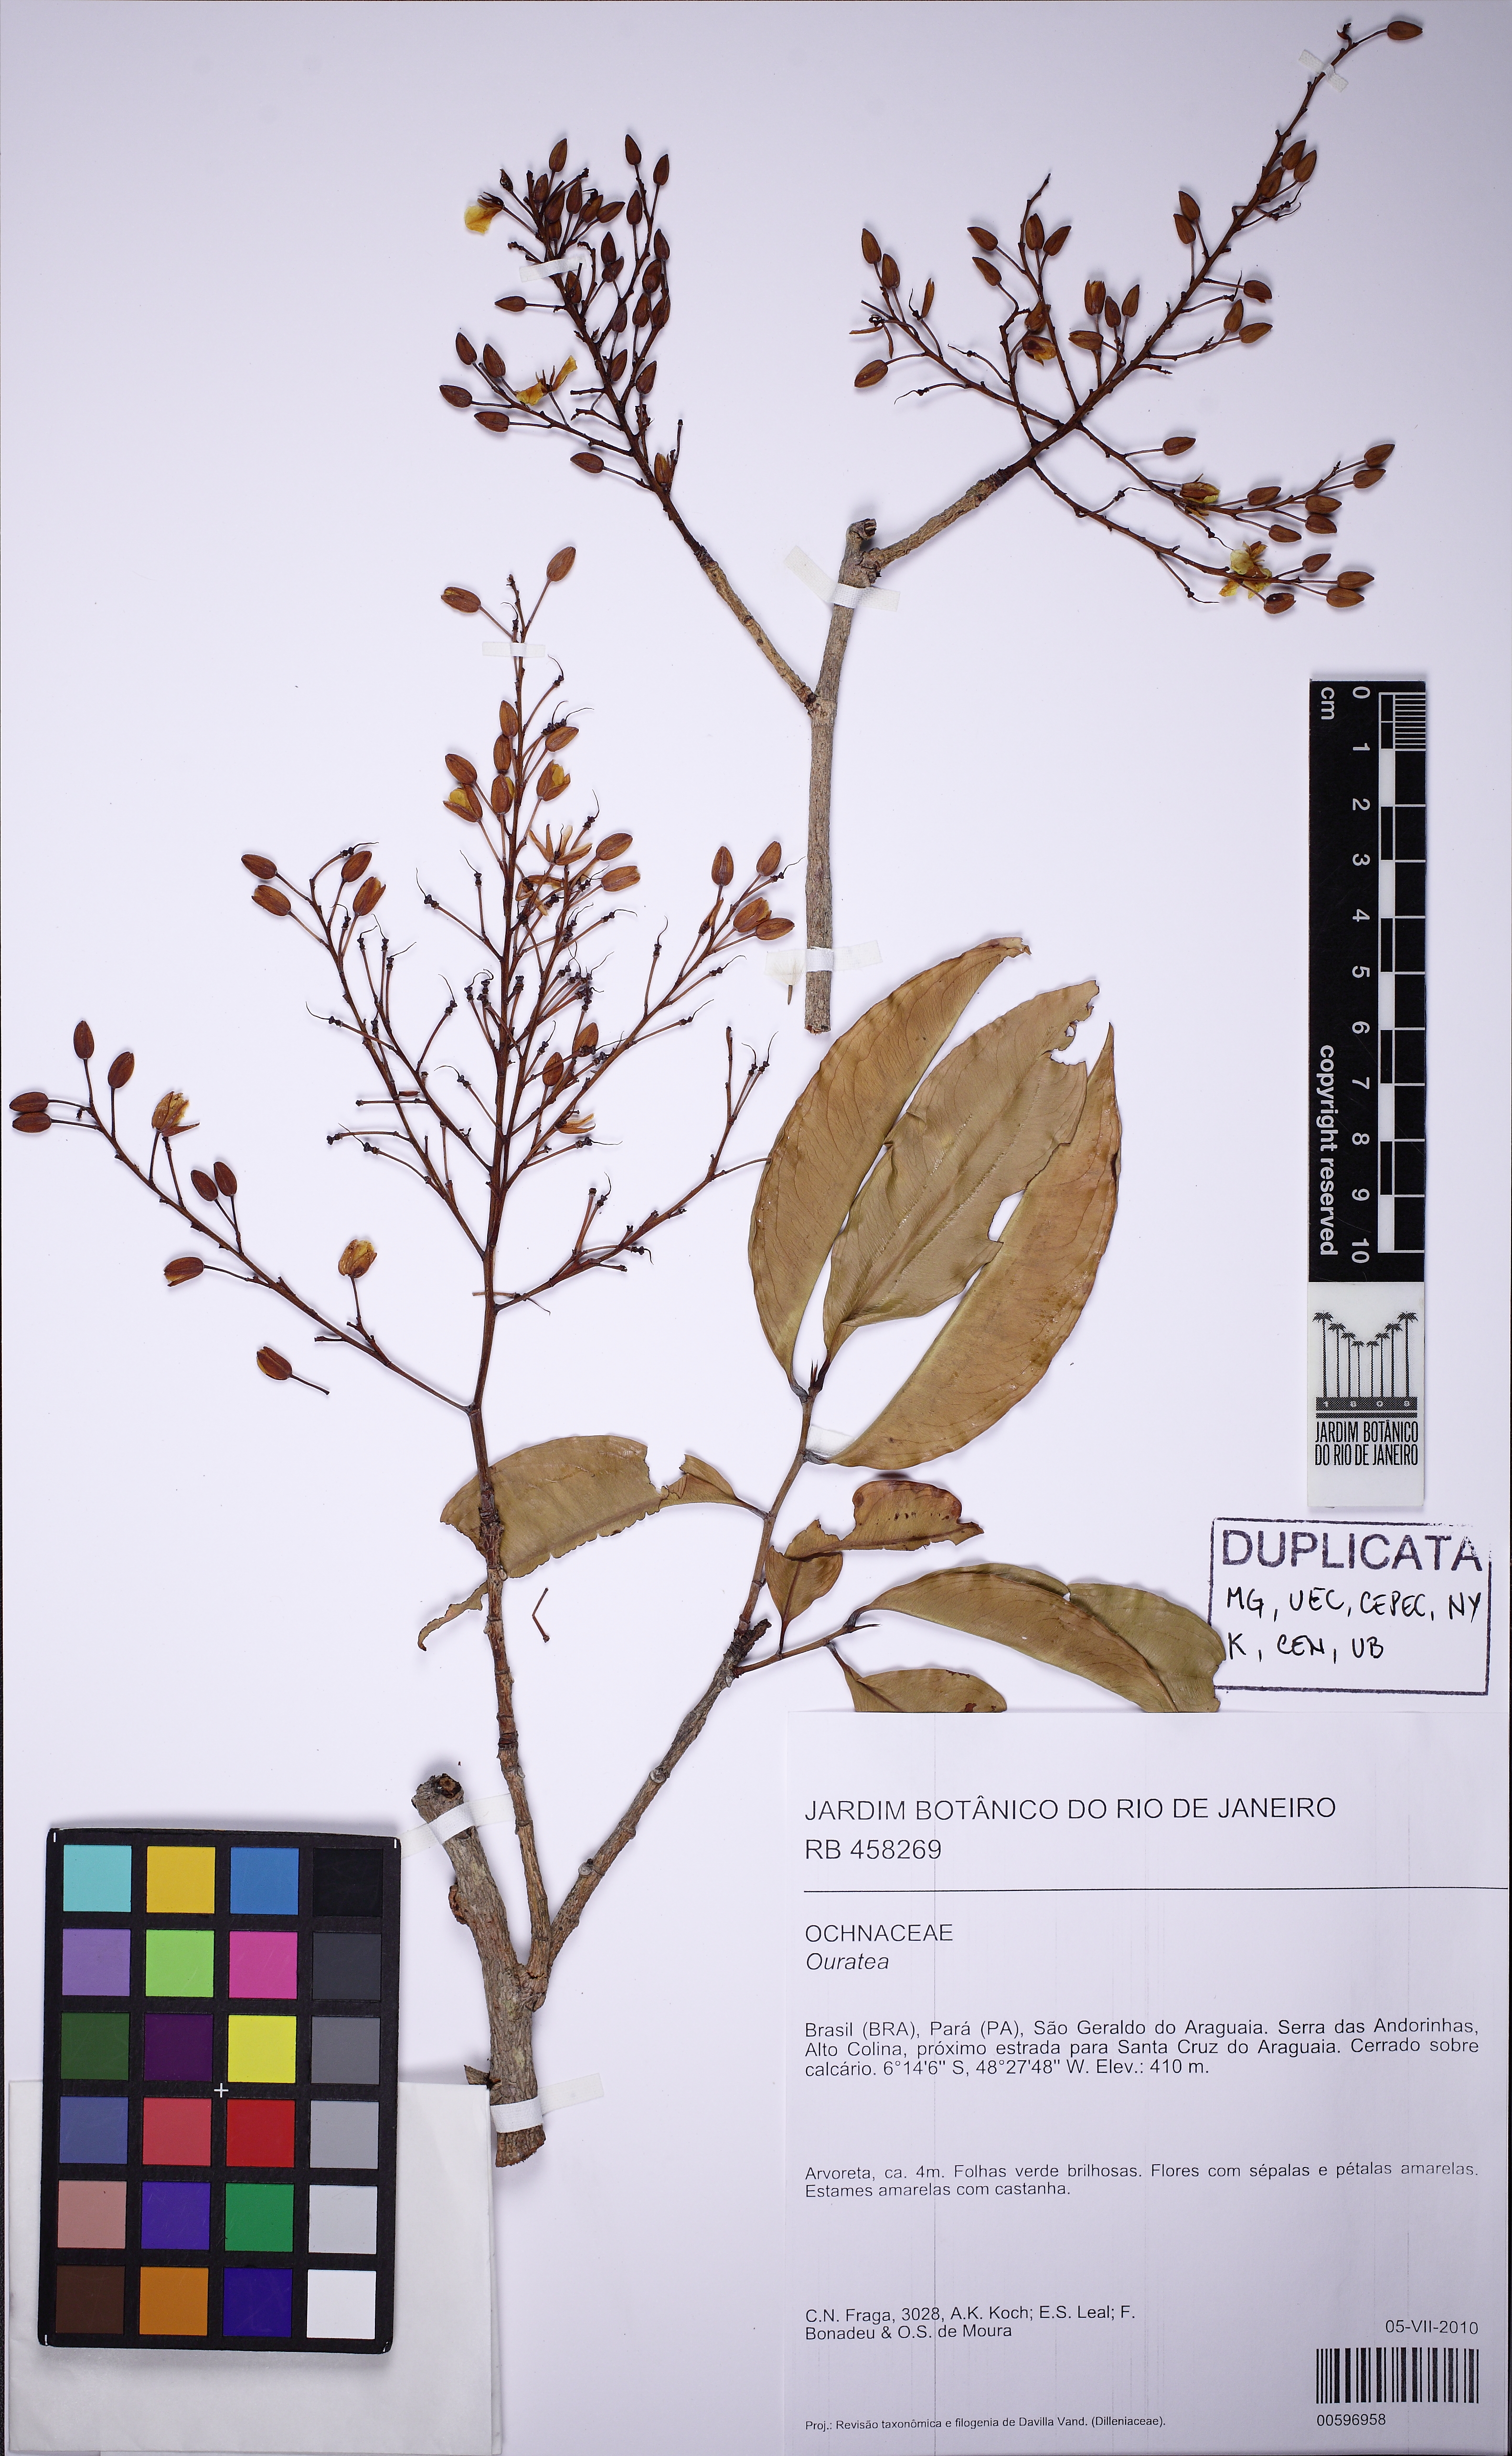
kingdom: Plantae
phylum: Tracheophyta
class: Magnoliopsida
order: Malpighiales
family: Ochnaceae
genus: Ouratea
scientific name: Ouratea hexasperma
